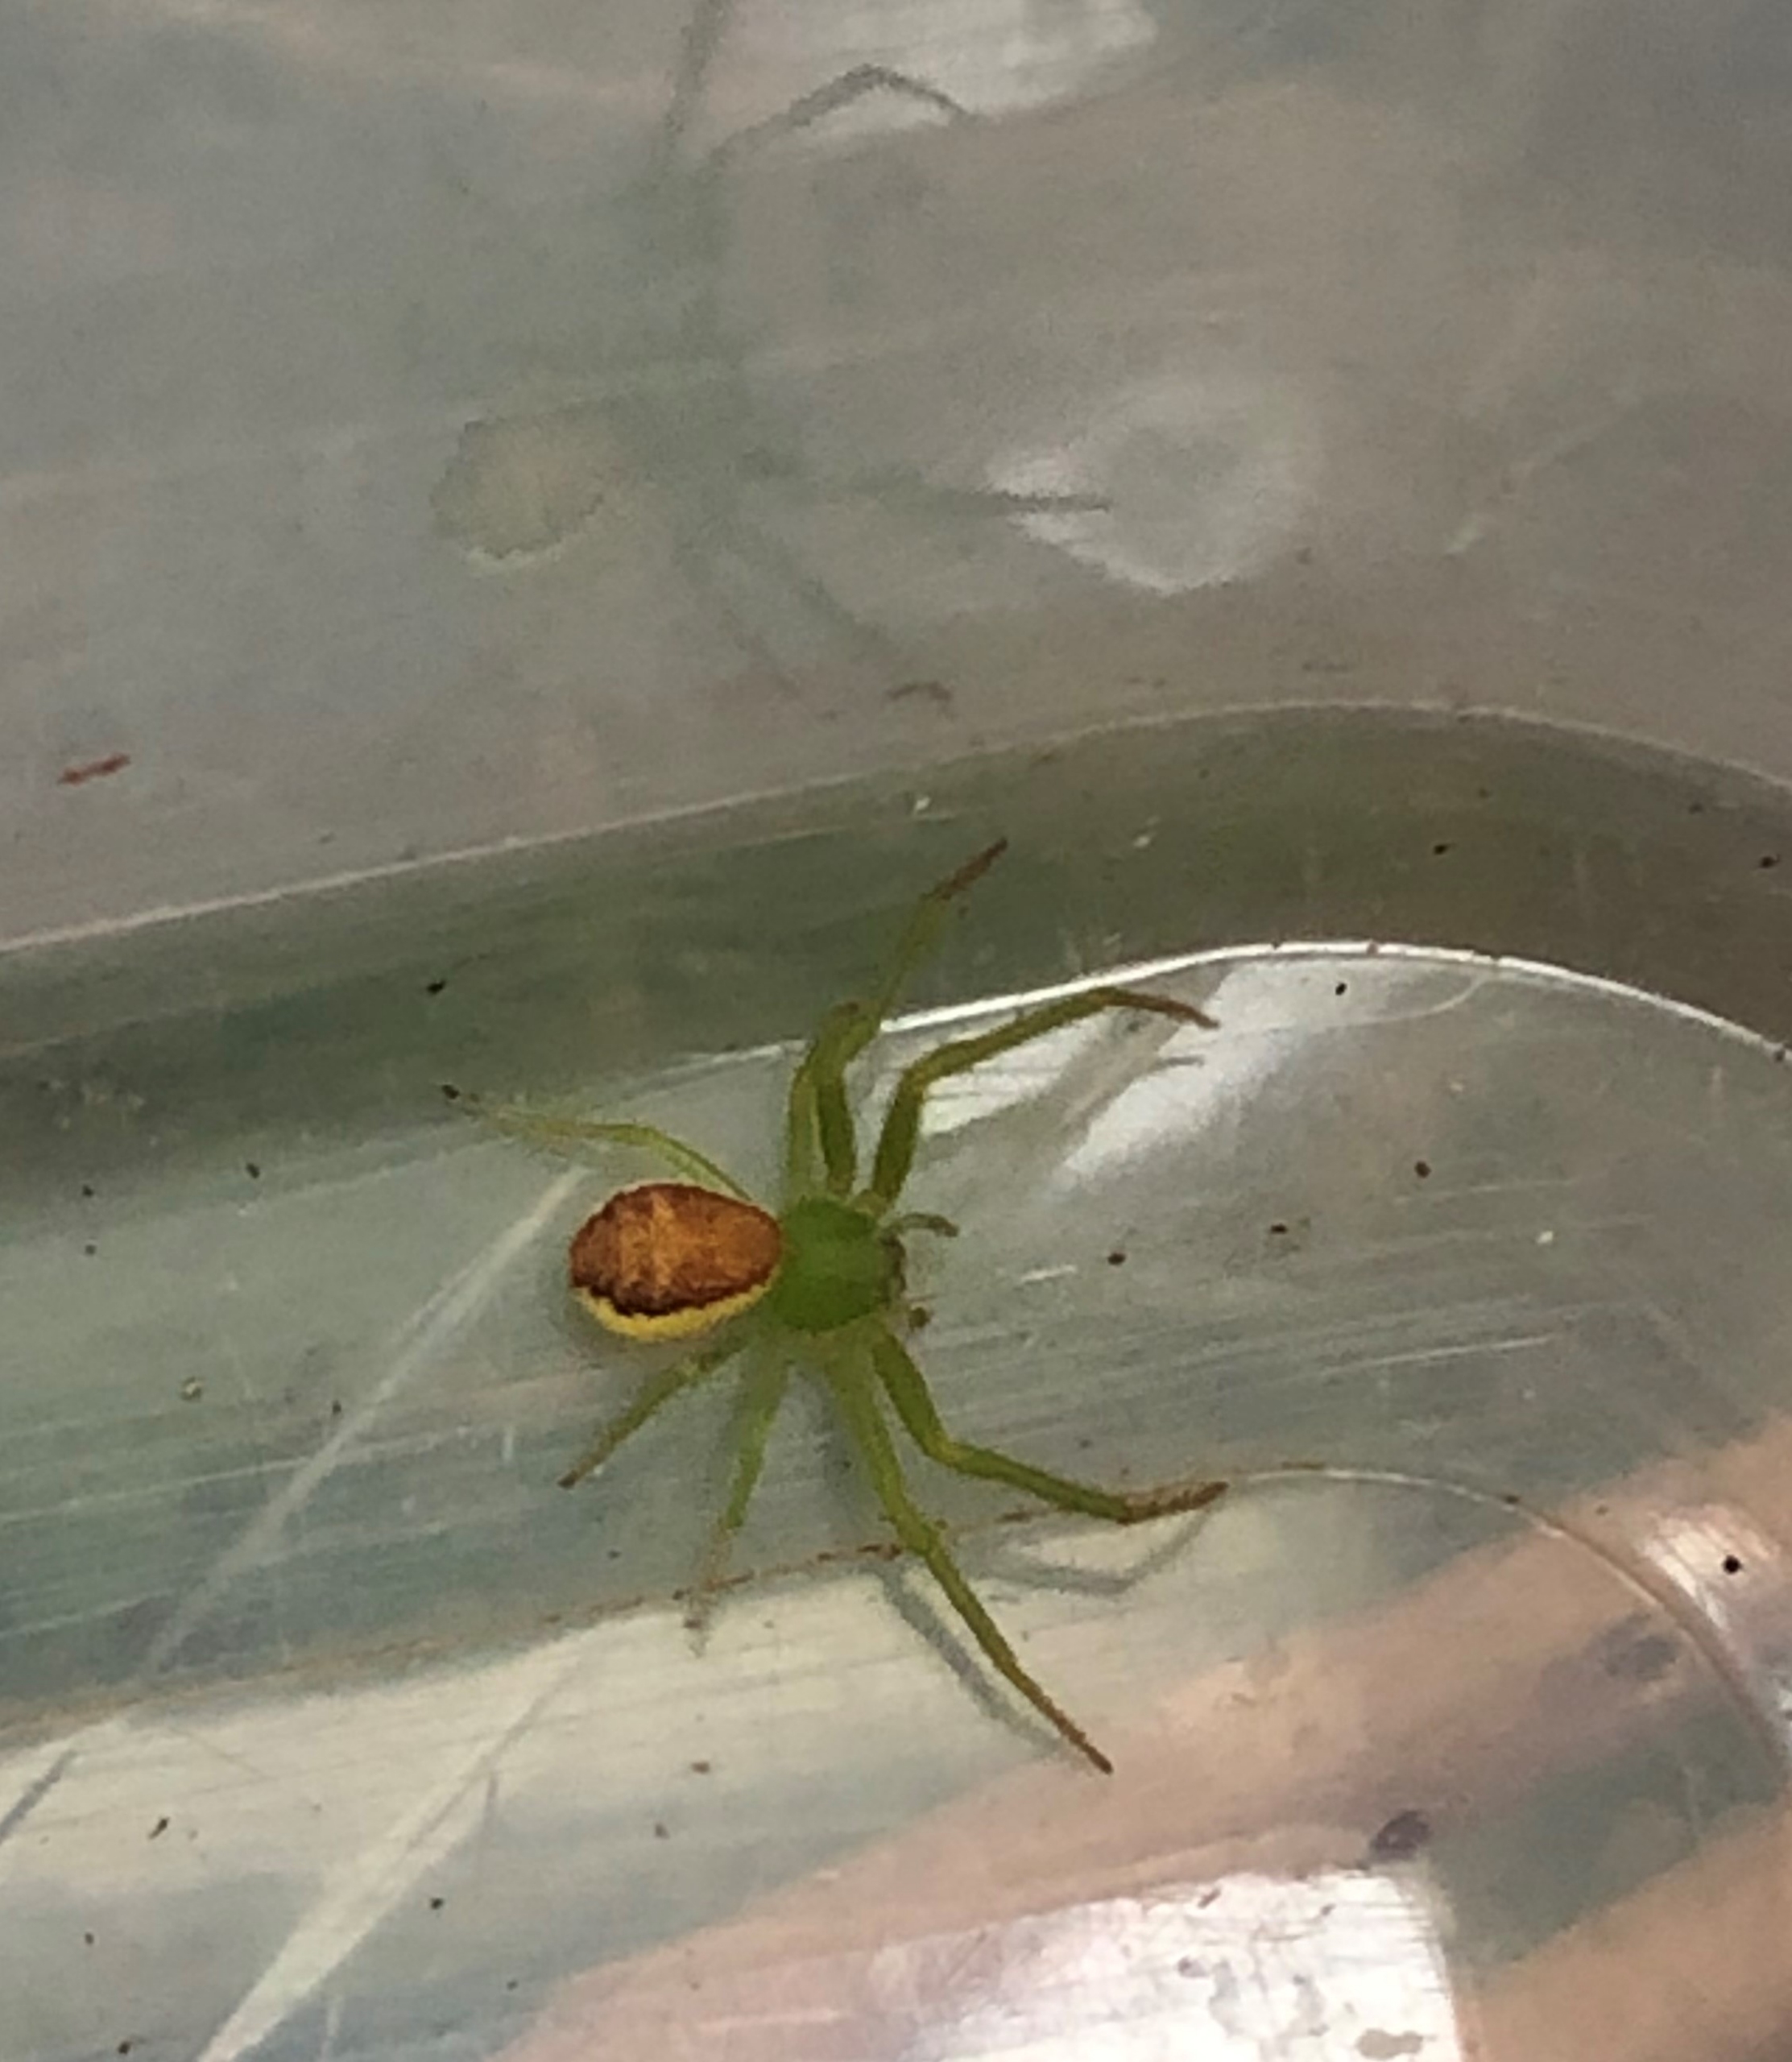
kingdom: Animalia
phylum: Arthropoda
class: Arachnida
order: Araneae
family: Thomisidae
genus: Diaea
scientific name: Diaea dorsata
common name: Grøn krabbeedderkop
